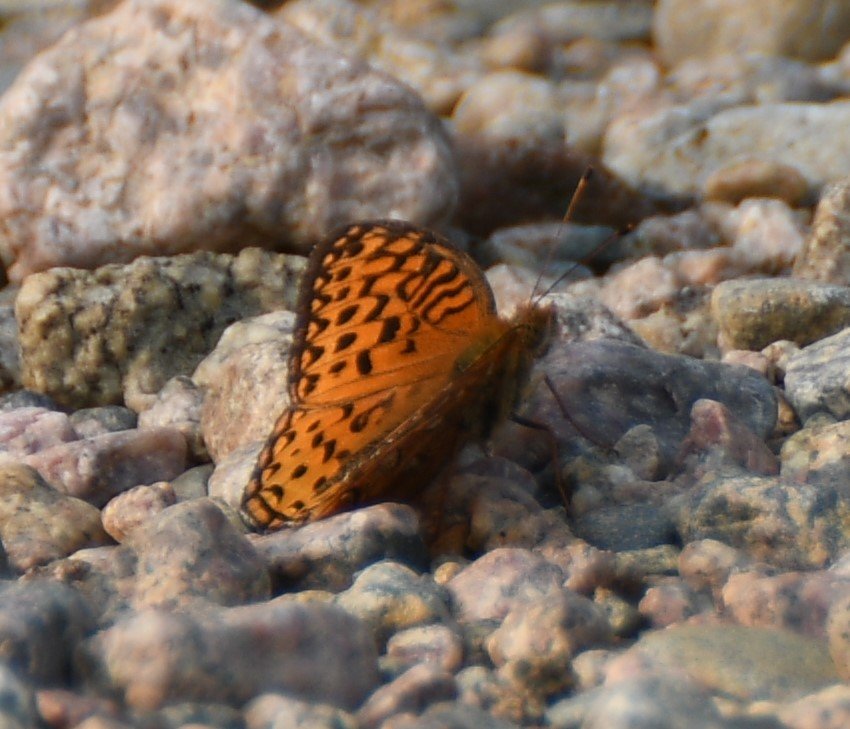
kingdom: Animalia
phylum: Arthropoda
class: Insecta
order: Lepidoptera
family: Nymphalidae
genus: Speyeria
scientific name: Speyeria aphrodite
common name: Aphrodite Fritillary
